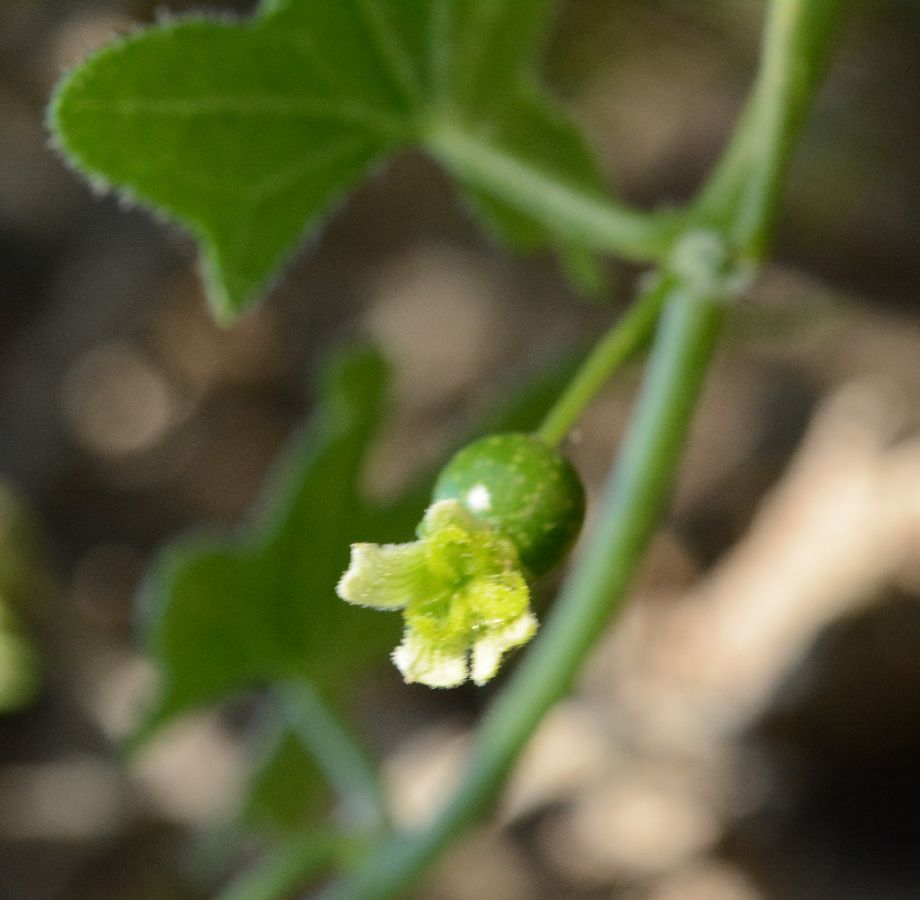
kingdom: Plantae
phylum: Tracheophyta
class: Magnoliopsida
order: Cucurbitales
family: Cucurbitaceae
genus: Bryonia
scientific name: Bryonia cretica
